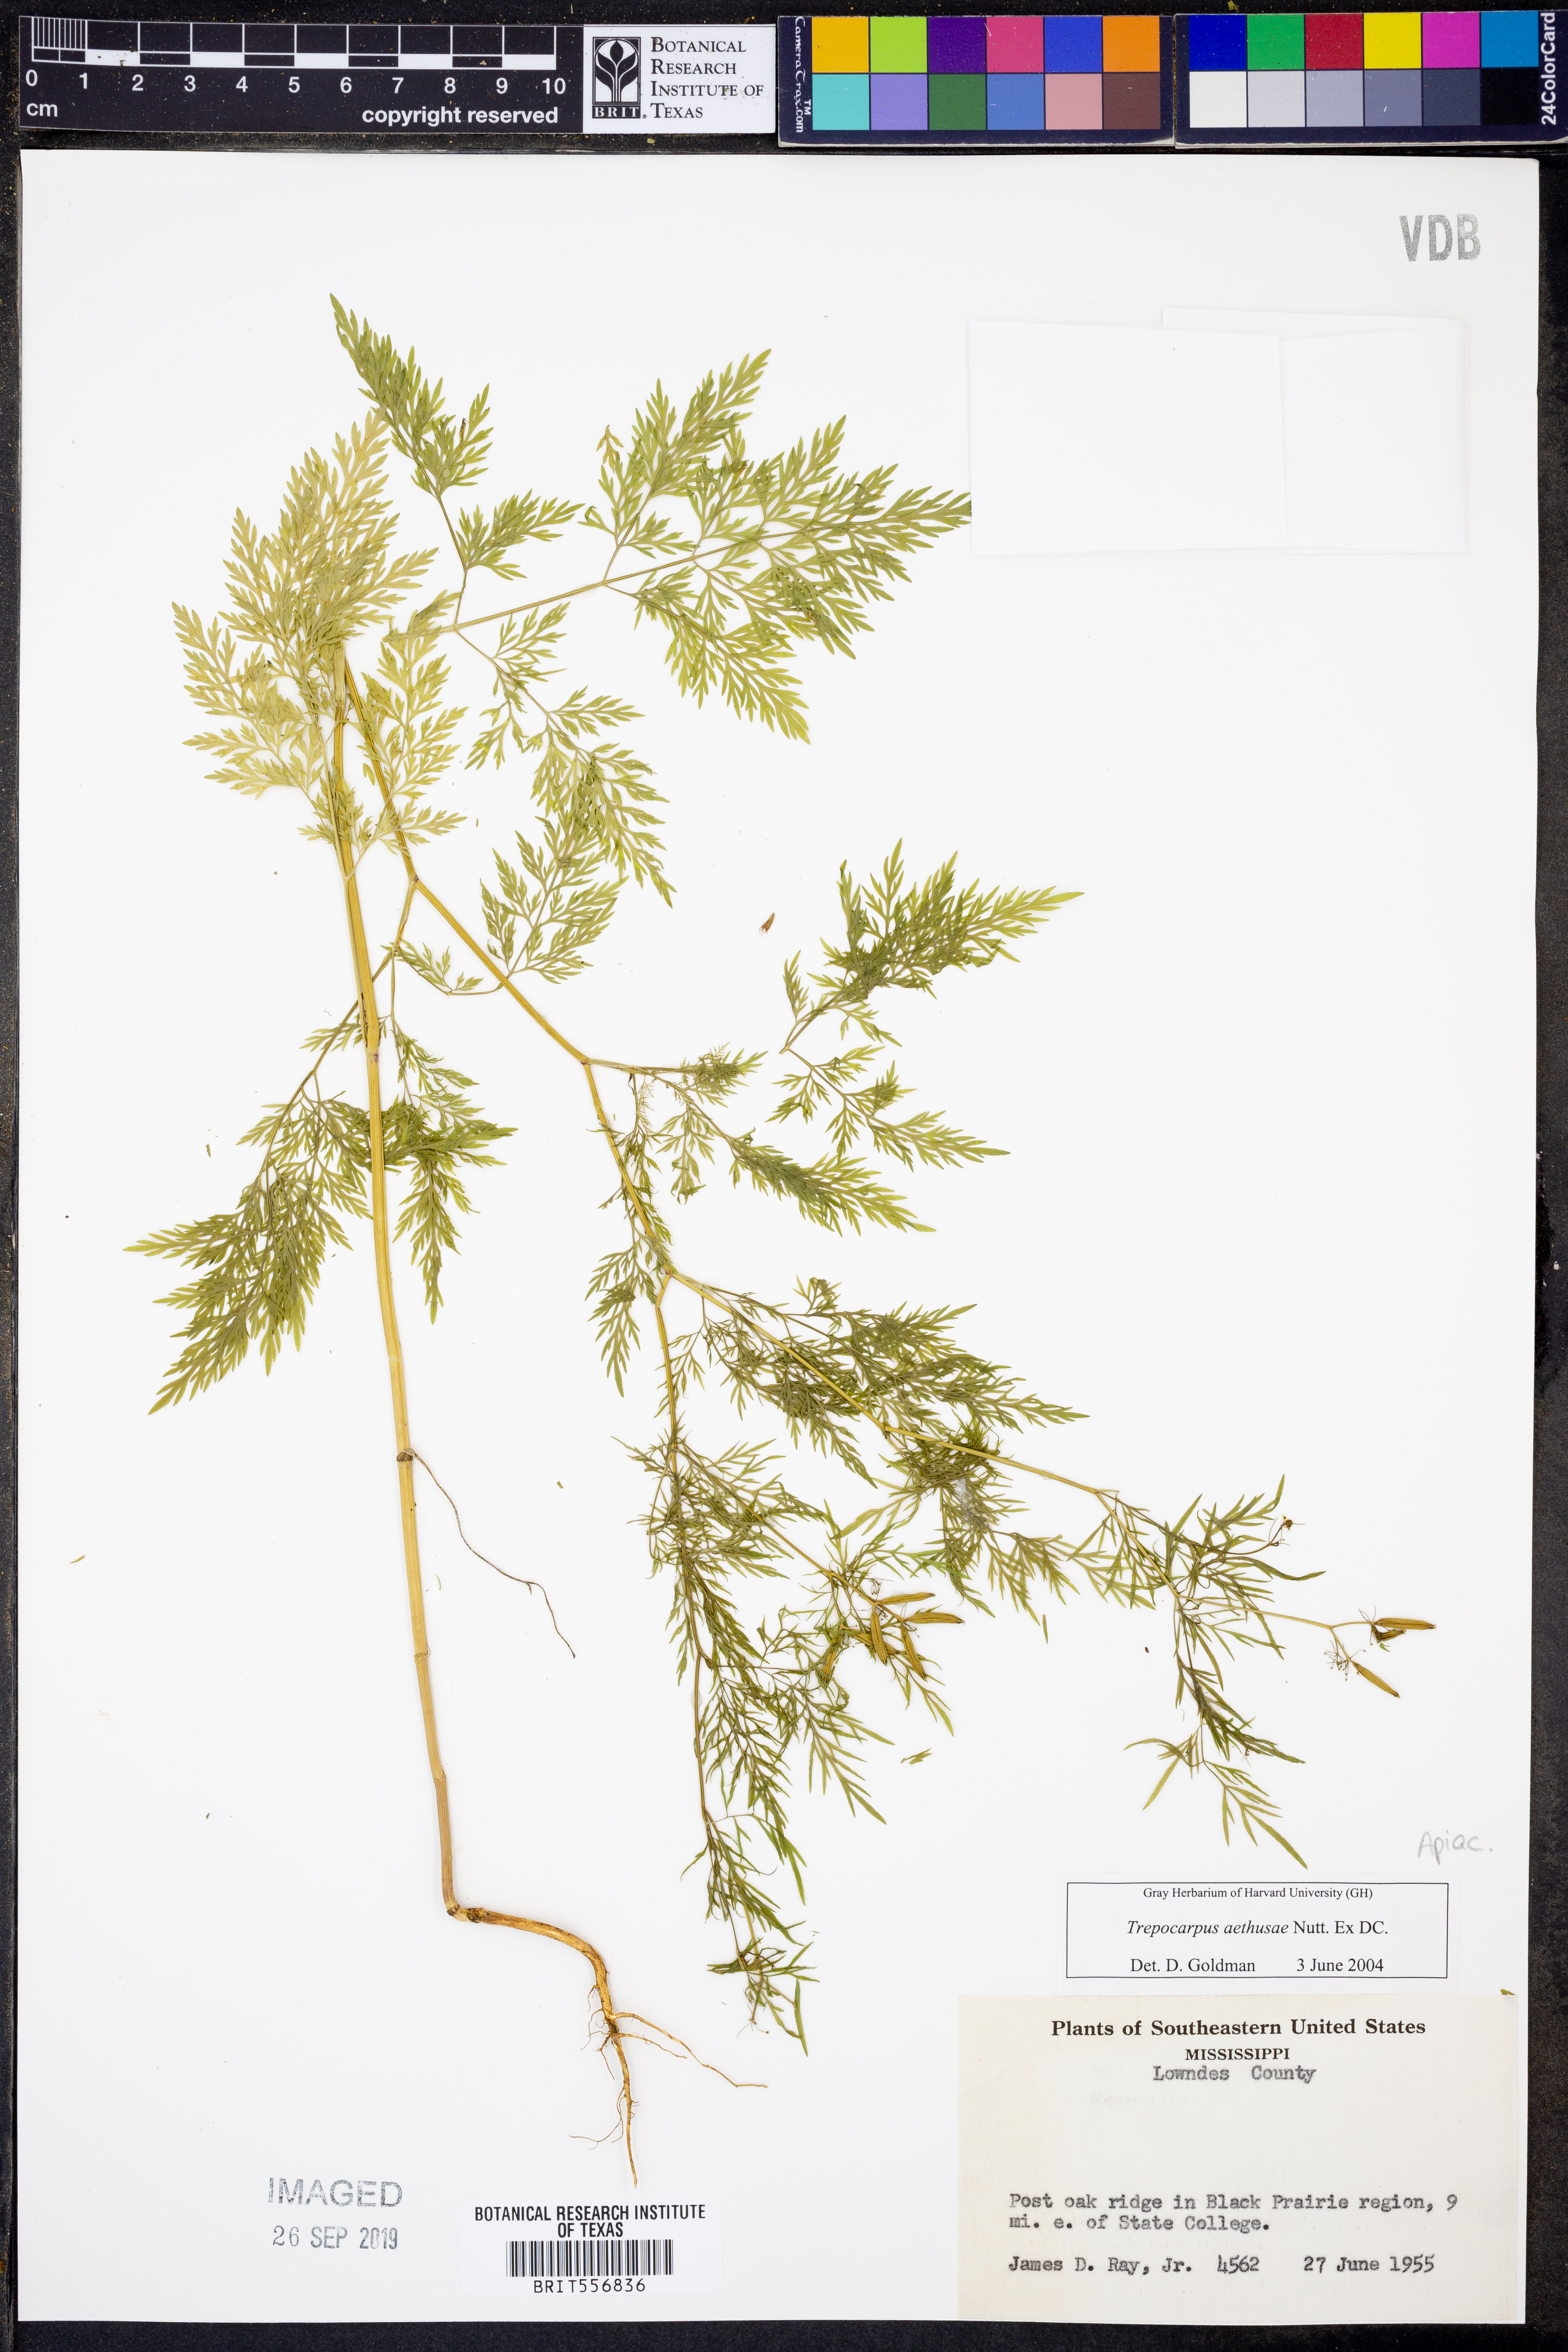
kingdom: Plantae
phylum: Tracheophyta
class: Magnoliopsida
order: Apiales
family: Apiaceae
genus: Trepocarpus
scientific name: Trepocarpus aethusae
